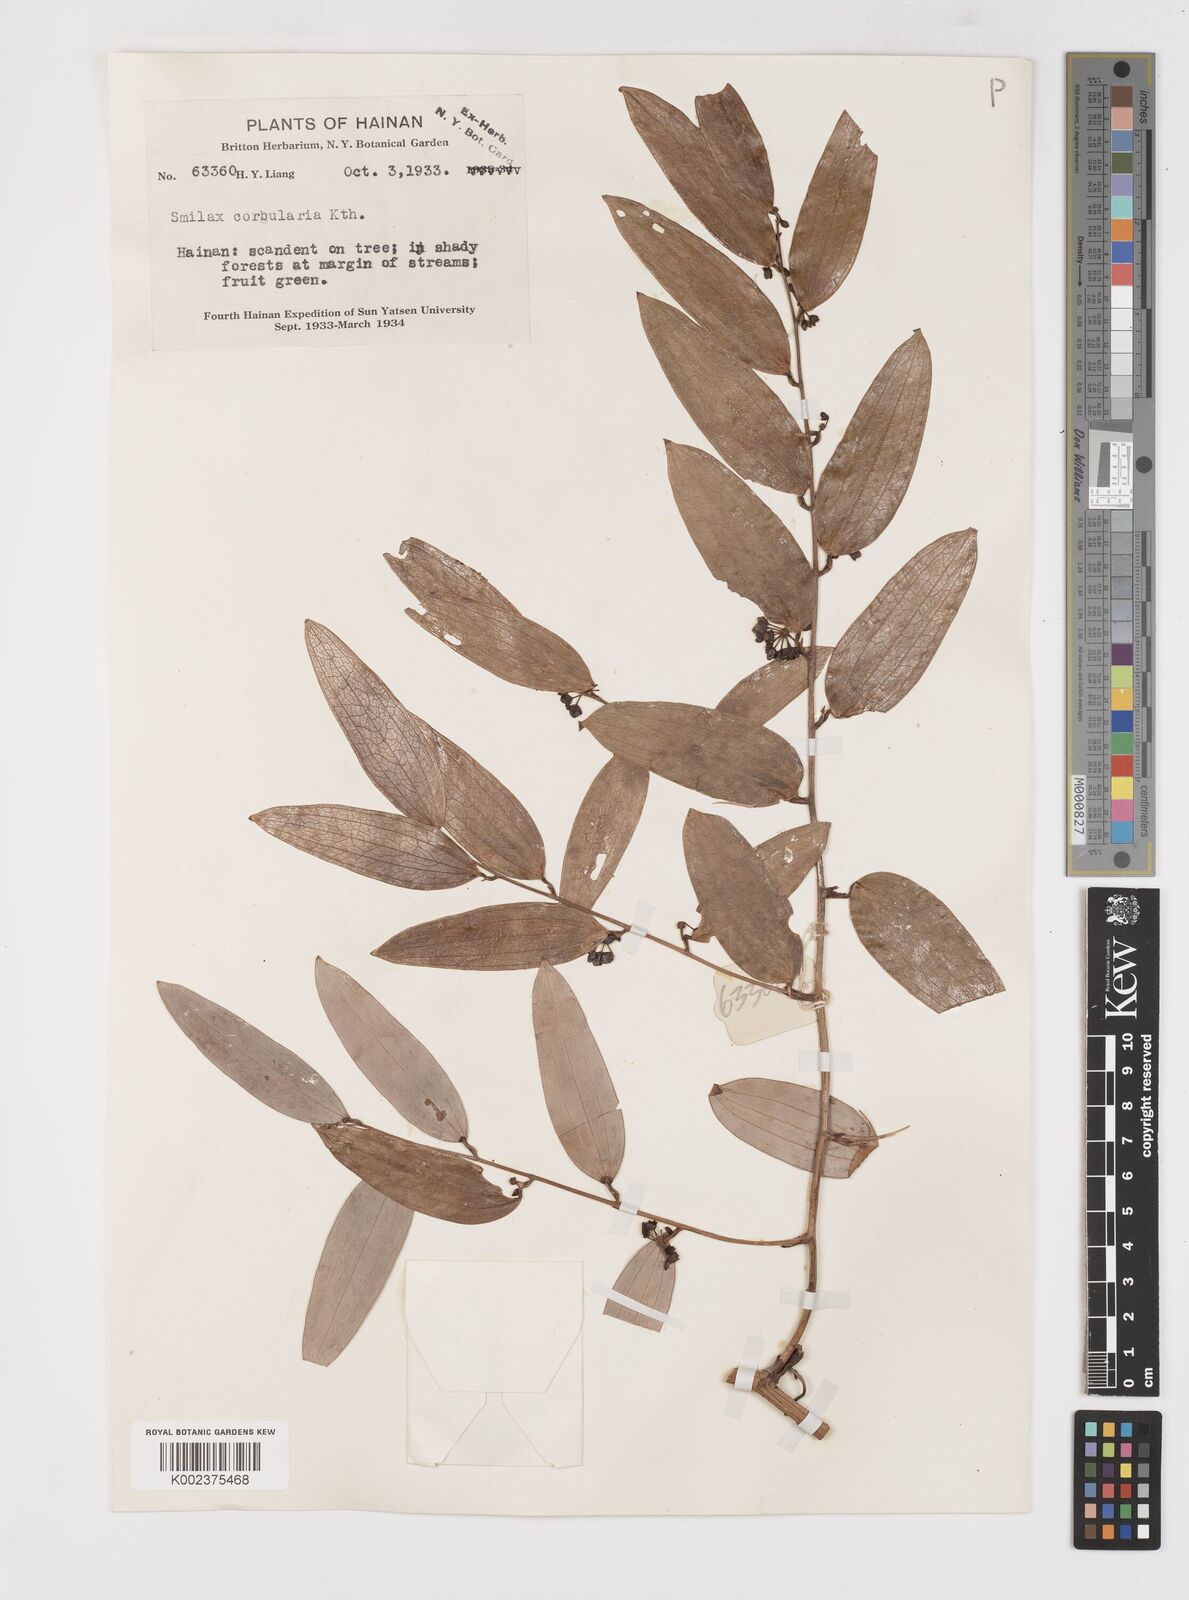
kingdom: Plantae
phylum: Tracheophyta
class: Liliopsida
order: Liliales
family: Smilacaceae
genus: Smilax
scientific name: Smilax hypoglauca
